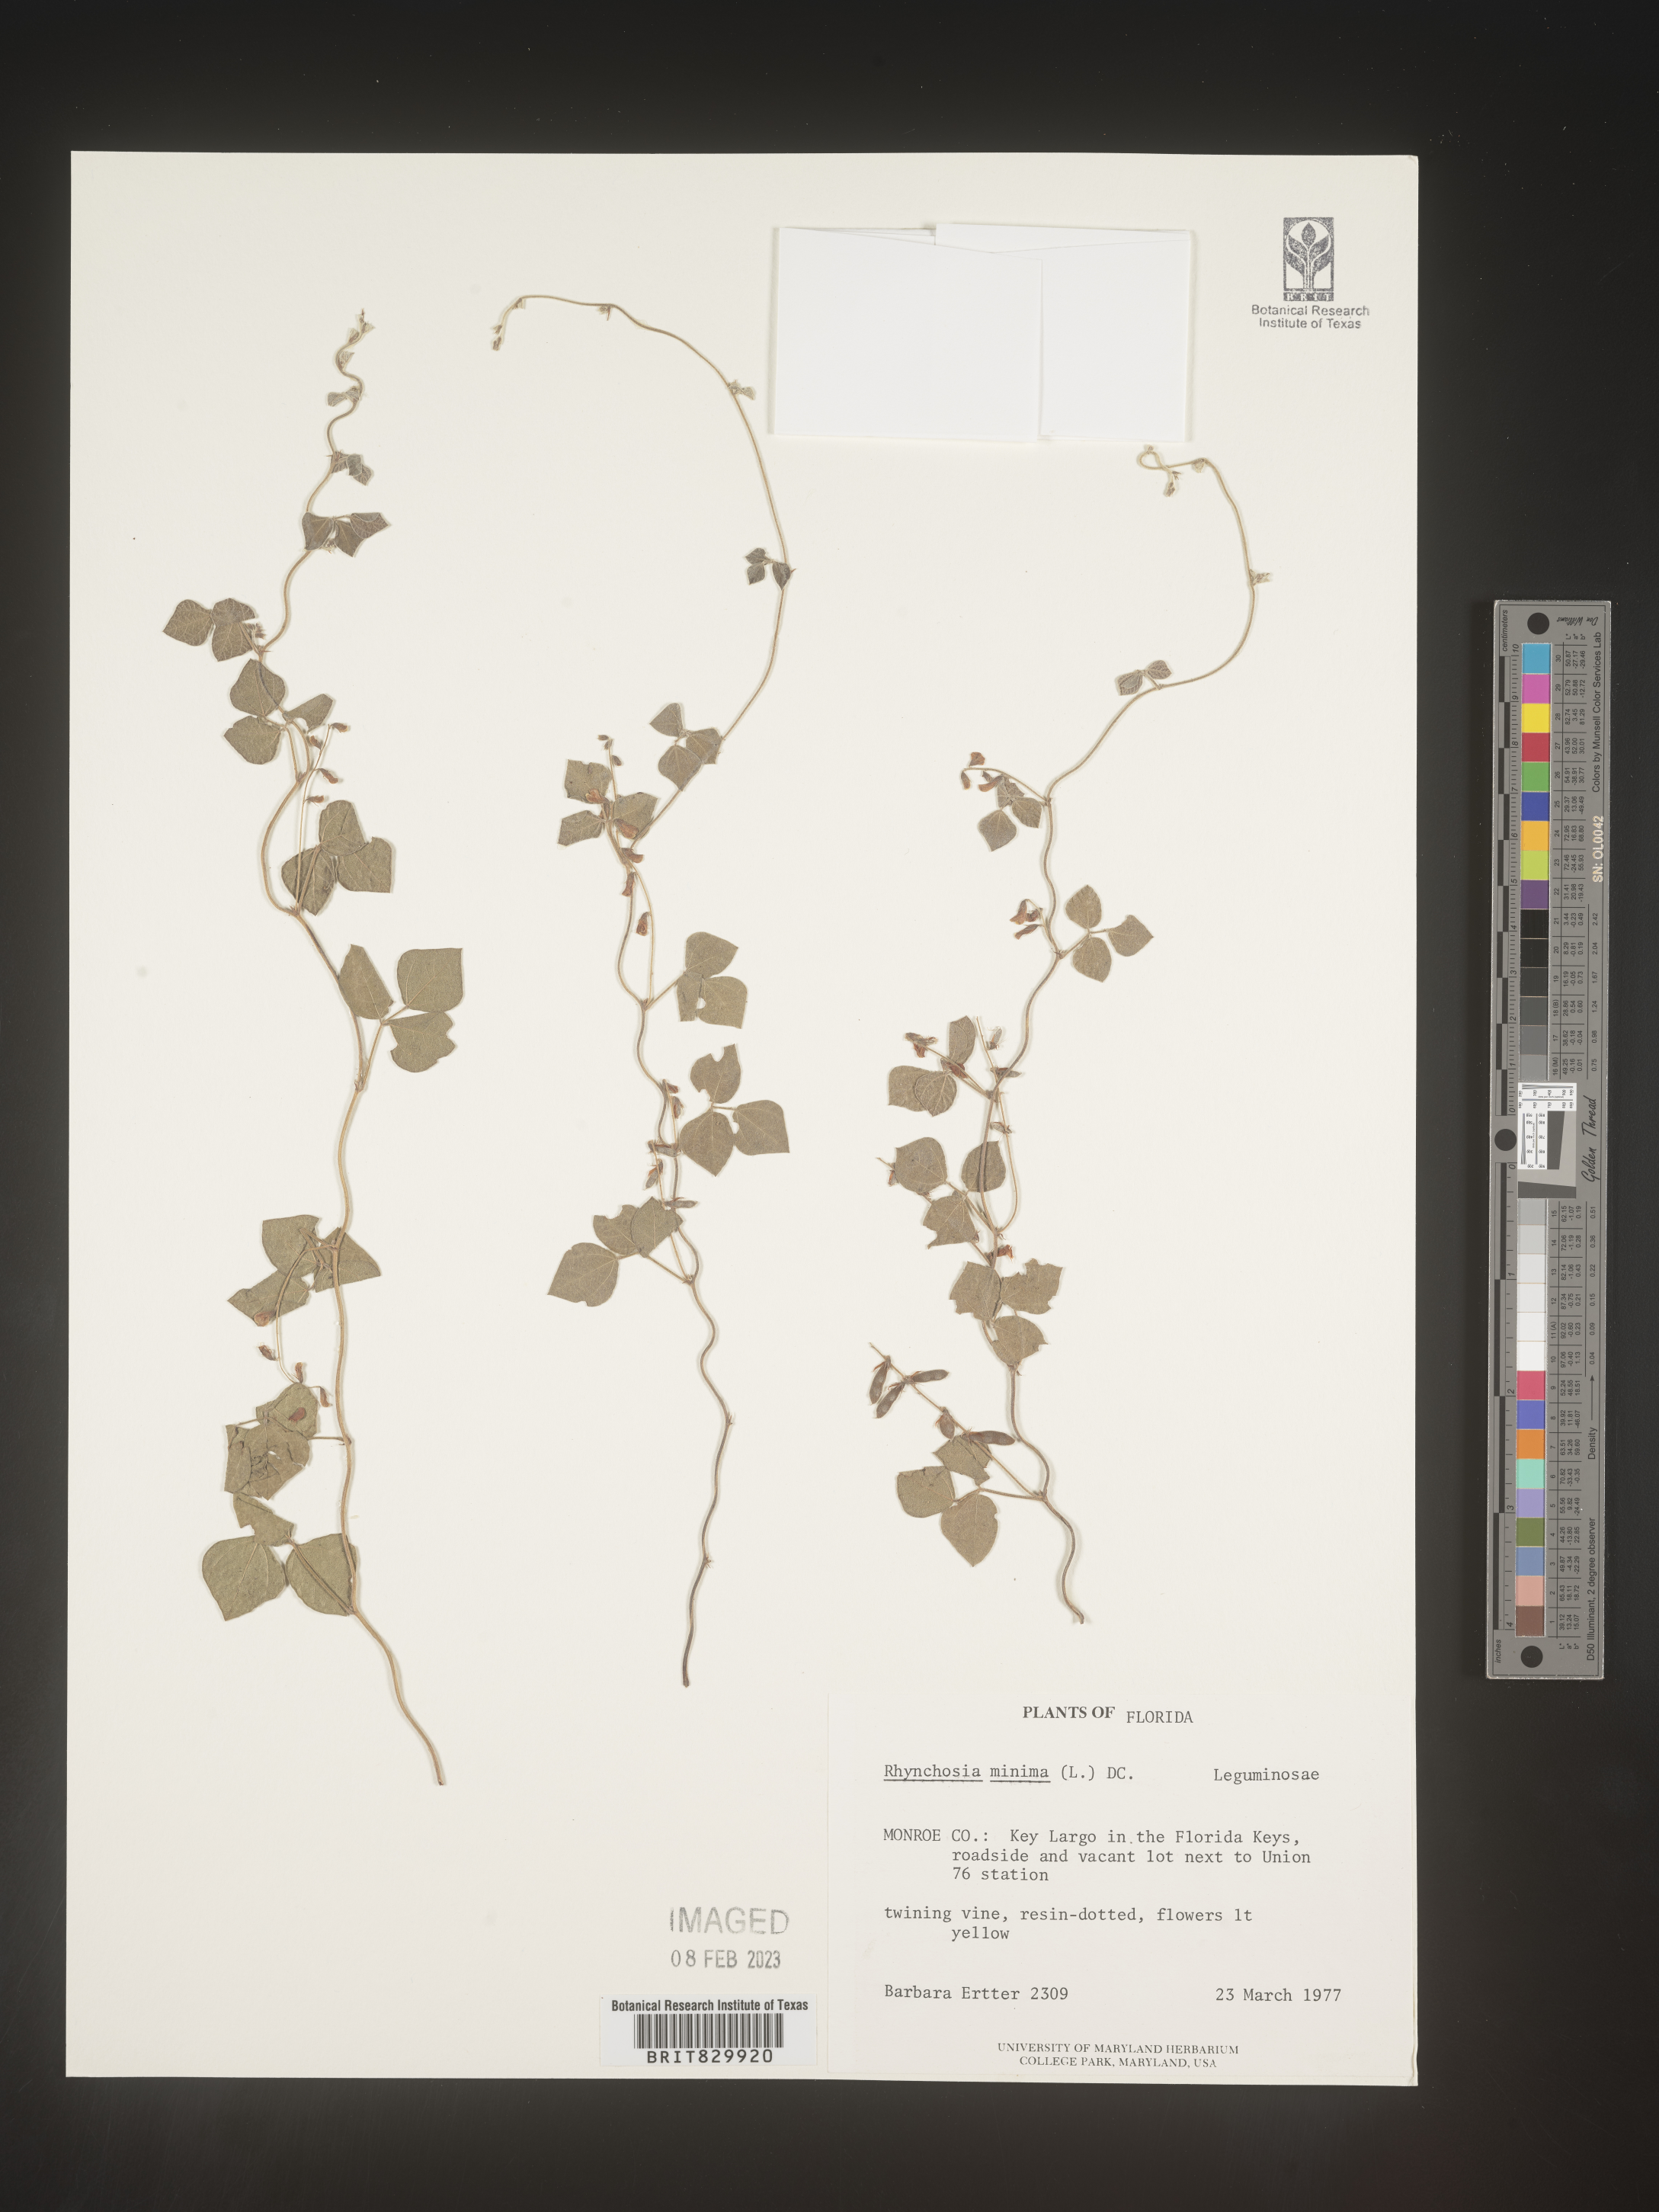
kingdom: Plantae
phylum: Tracheophyta
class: Magnoliopsida
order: Fabales
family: Fabaceae
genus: Rhynchosia
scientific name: Rhynchosia
